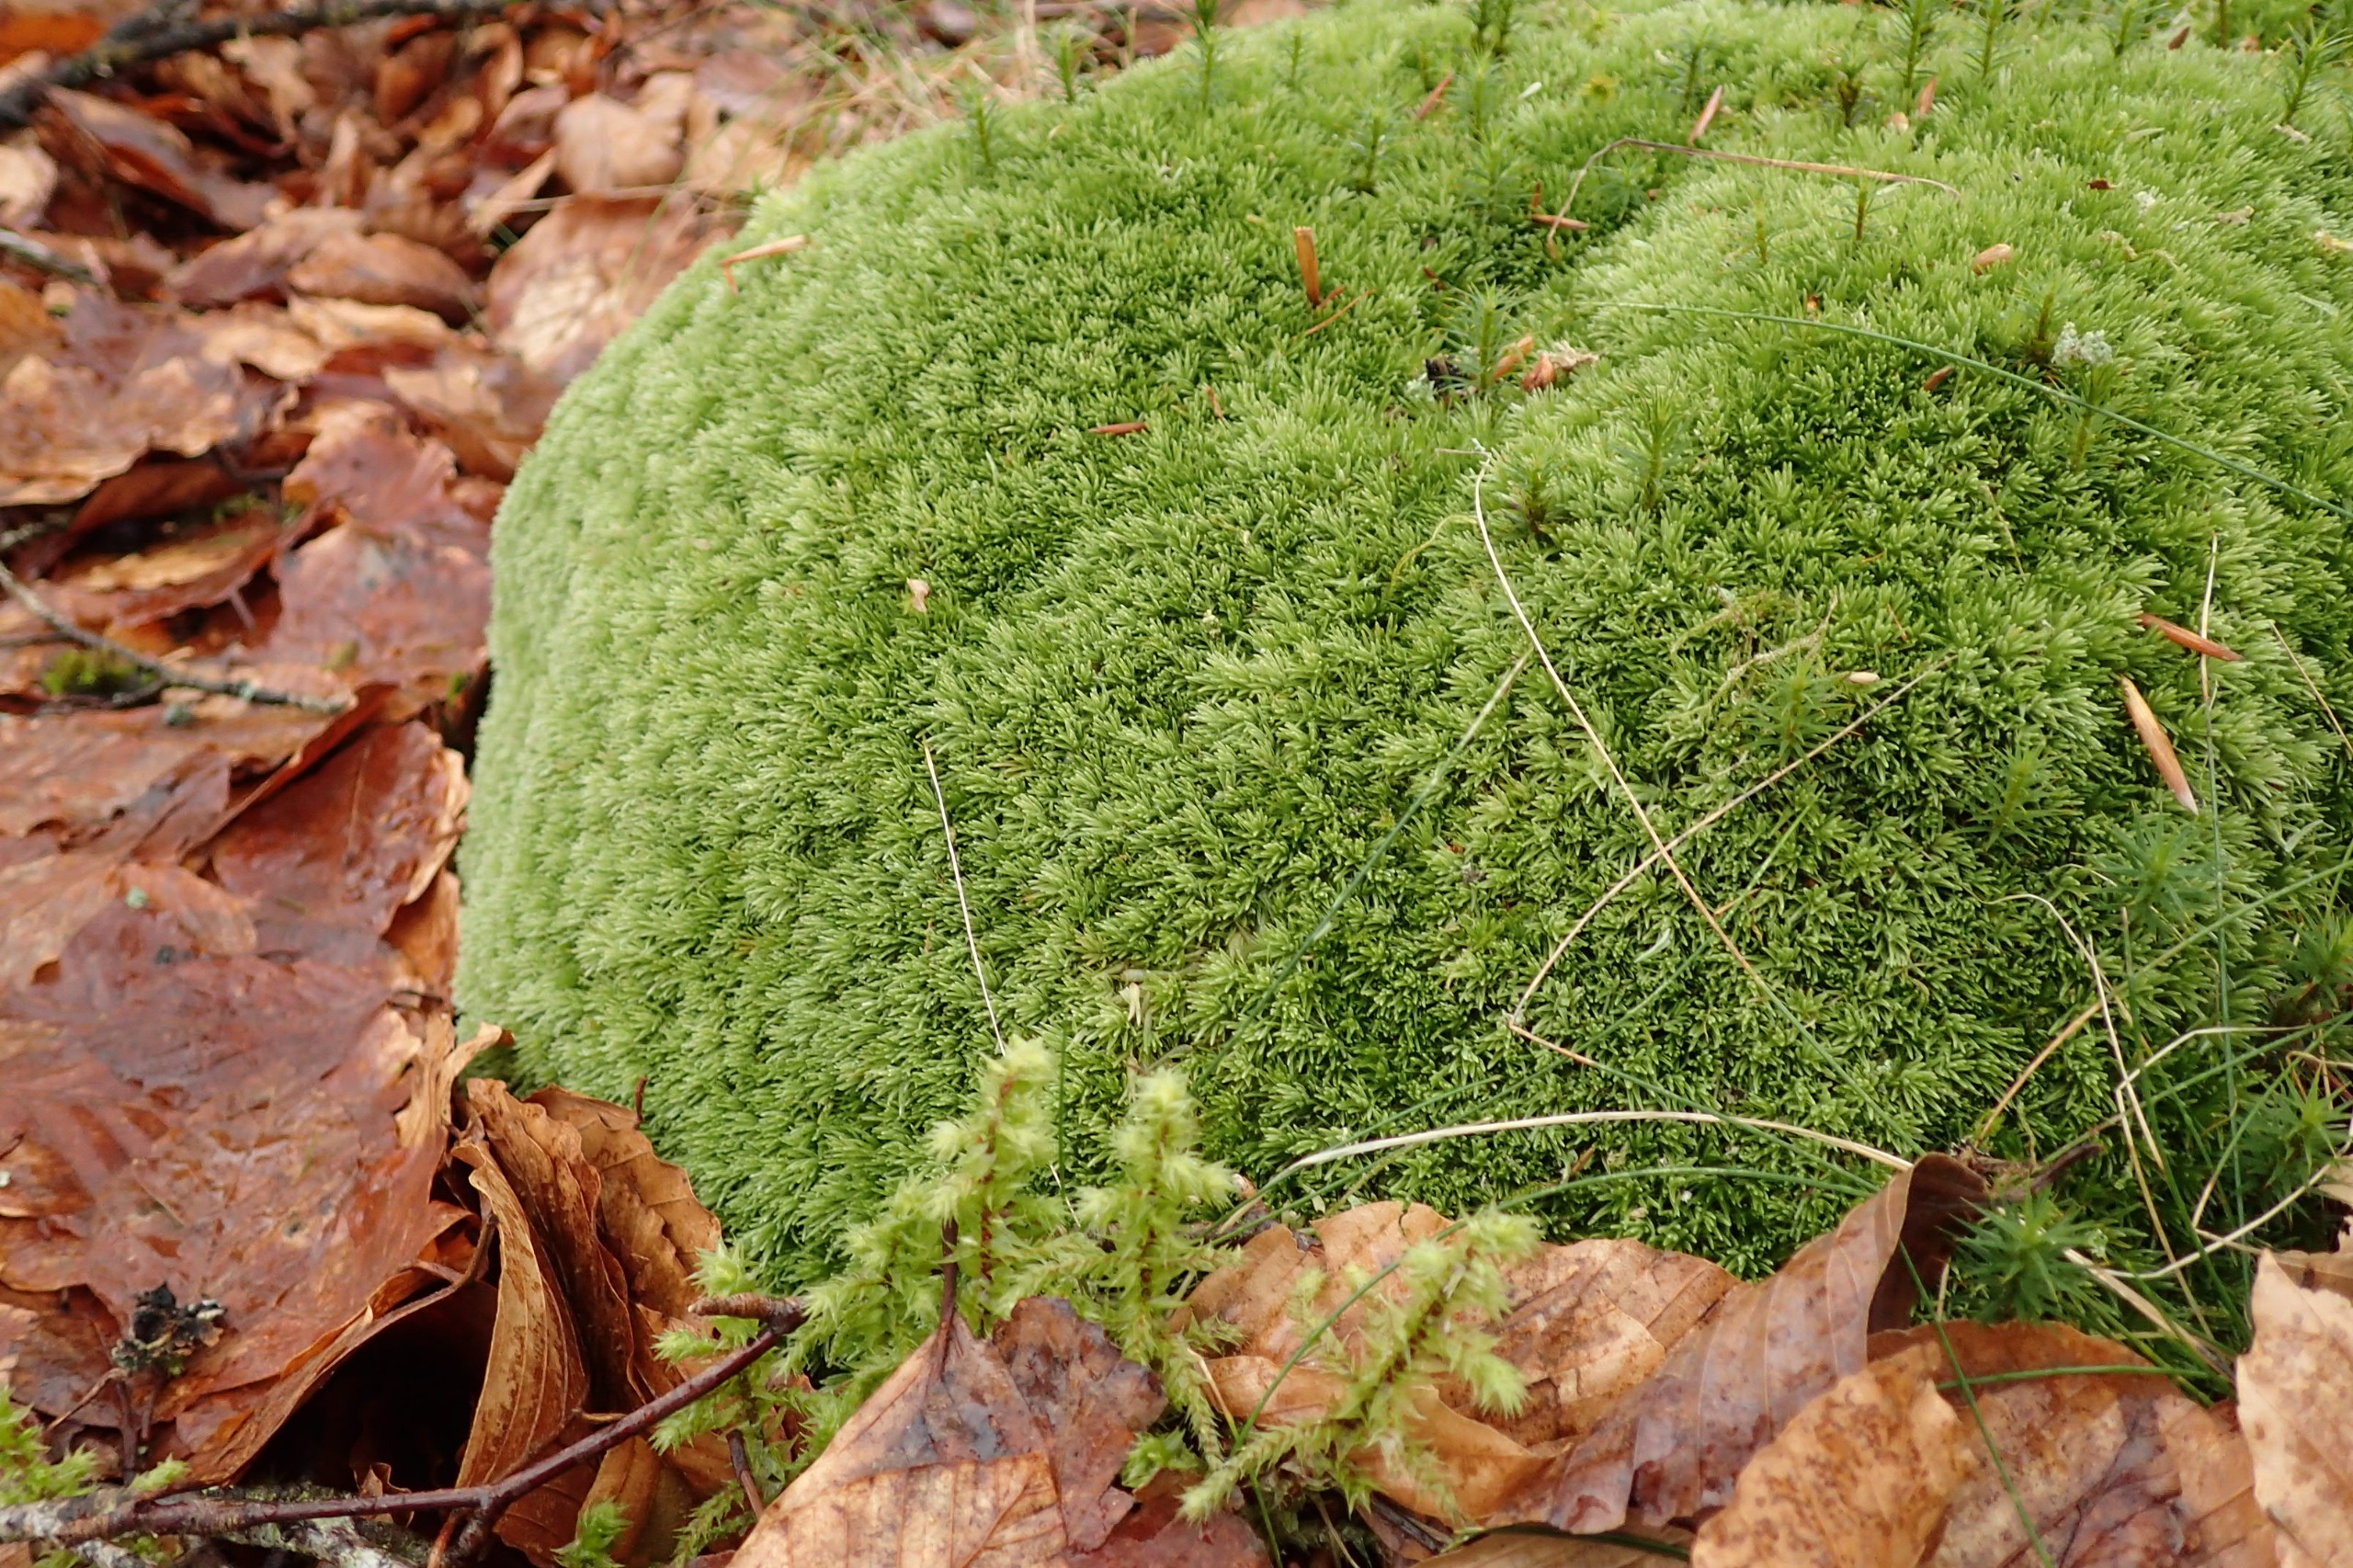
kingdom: Plantae
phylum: Bryophyta
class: Bryopsida
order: Dicranales
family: Leucobryaceae
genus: Leucobryum
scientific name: Leucobryum glaucum
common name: Almindelig hvidmos
